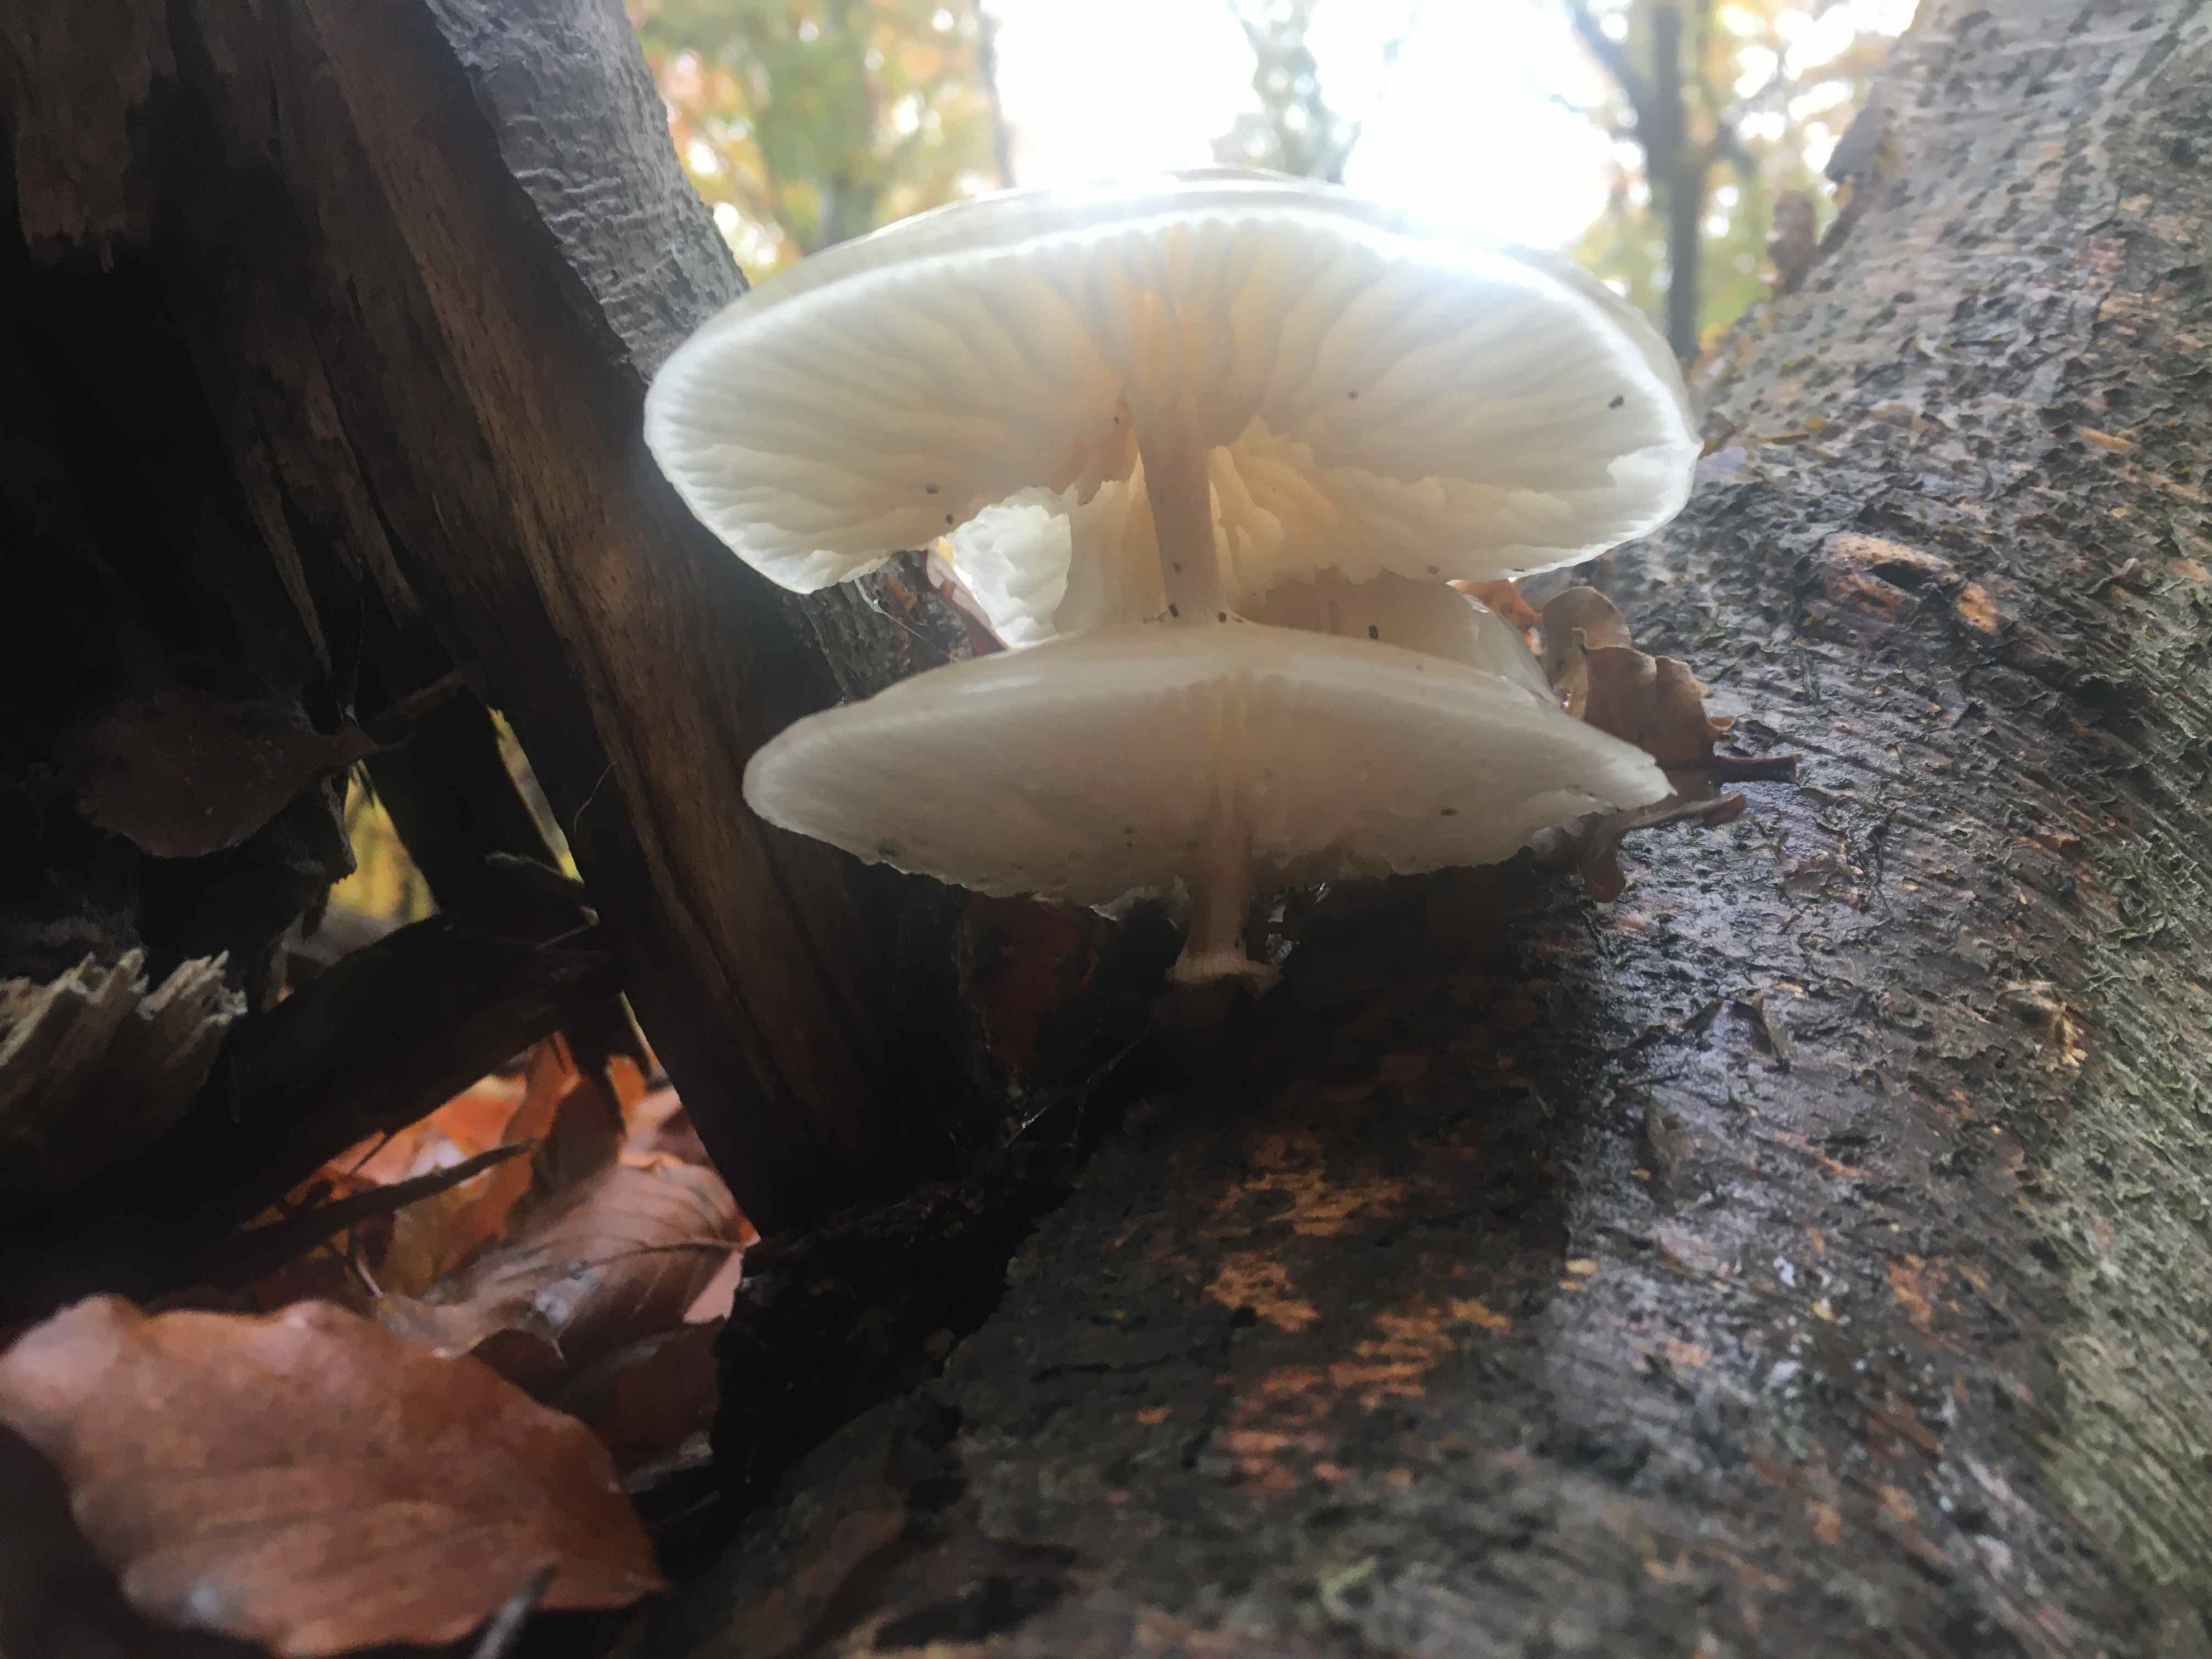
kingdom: Fungi
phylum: Basidiomycota
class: Agaricomycetes
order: Agaricales
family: Physalacriaceae
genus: Mucidula
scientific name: Mucidula mucida
